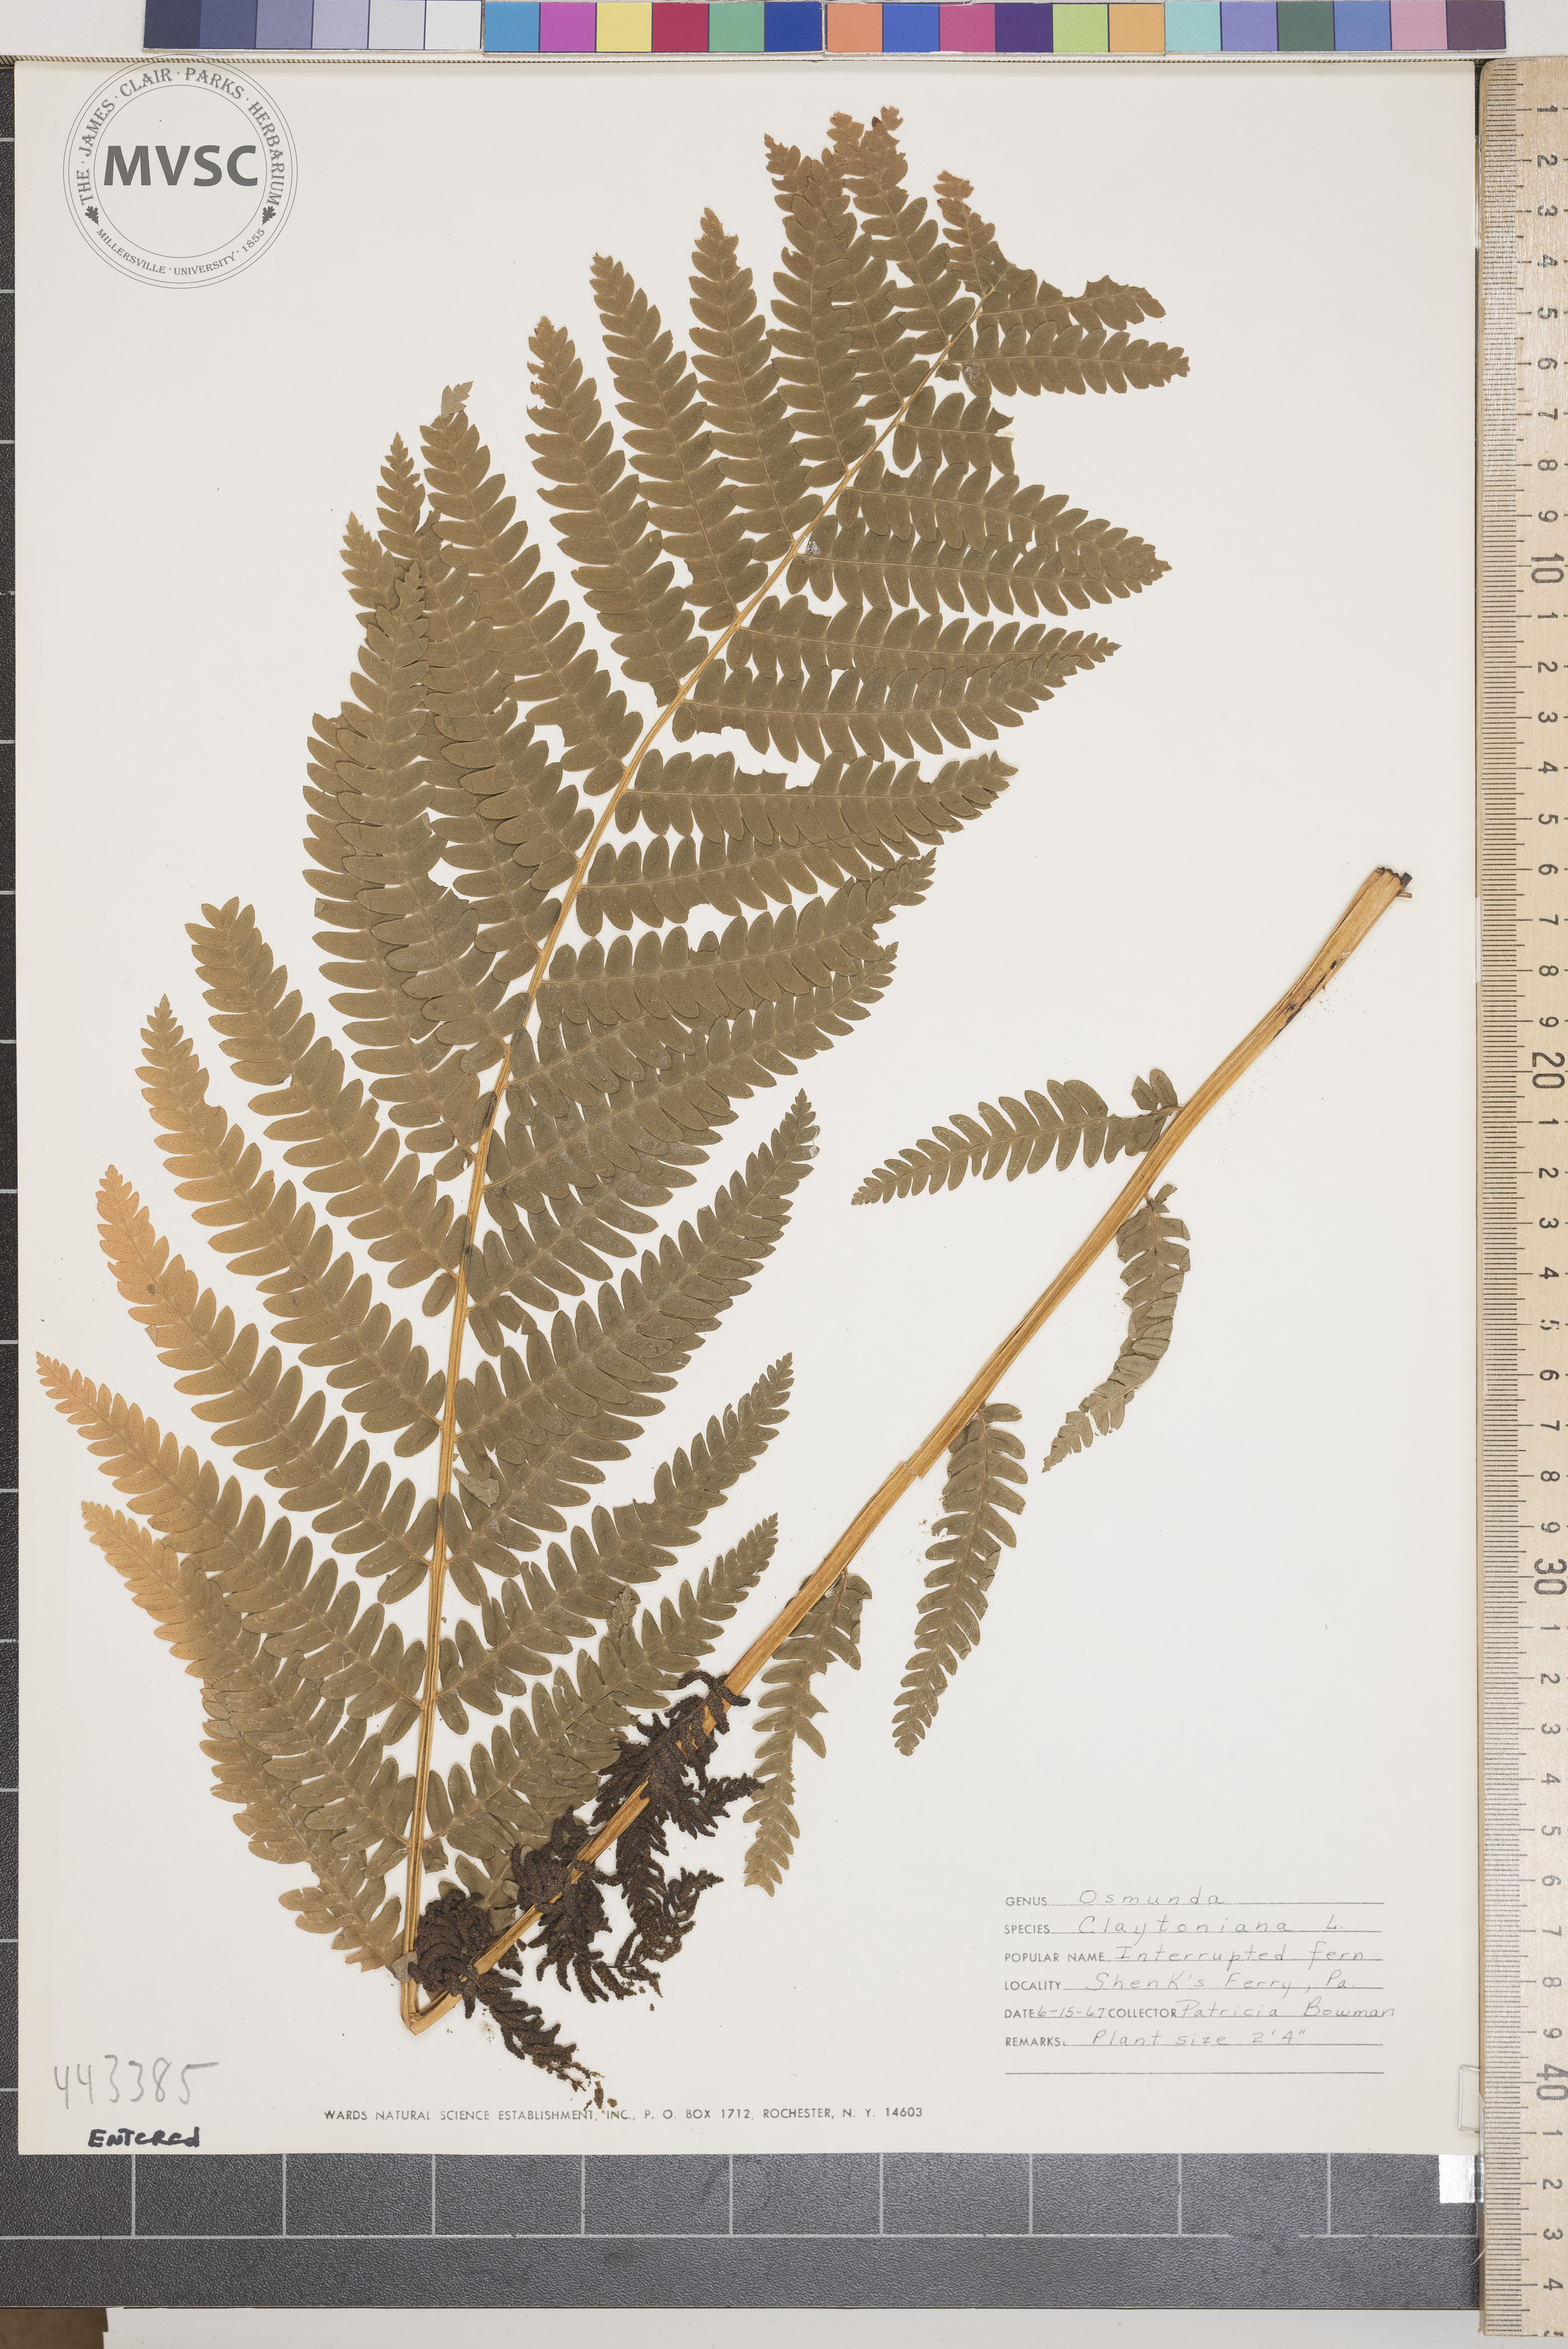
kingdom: Plantae
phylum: Tracheophyta
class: Polypodiopsida
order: Osmundales
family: Osmundaceae
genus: Claytosmunda
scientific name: Claytosmunda claytoniana
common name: Interrupted fern
